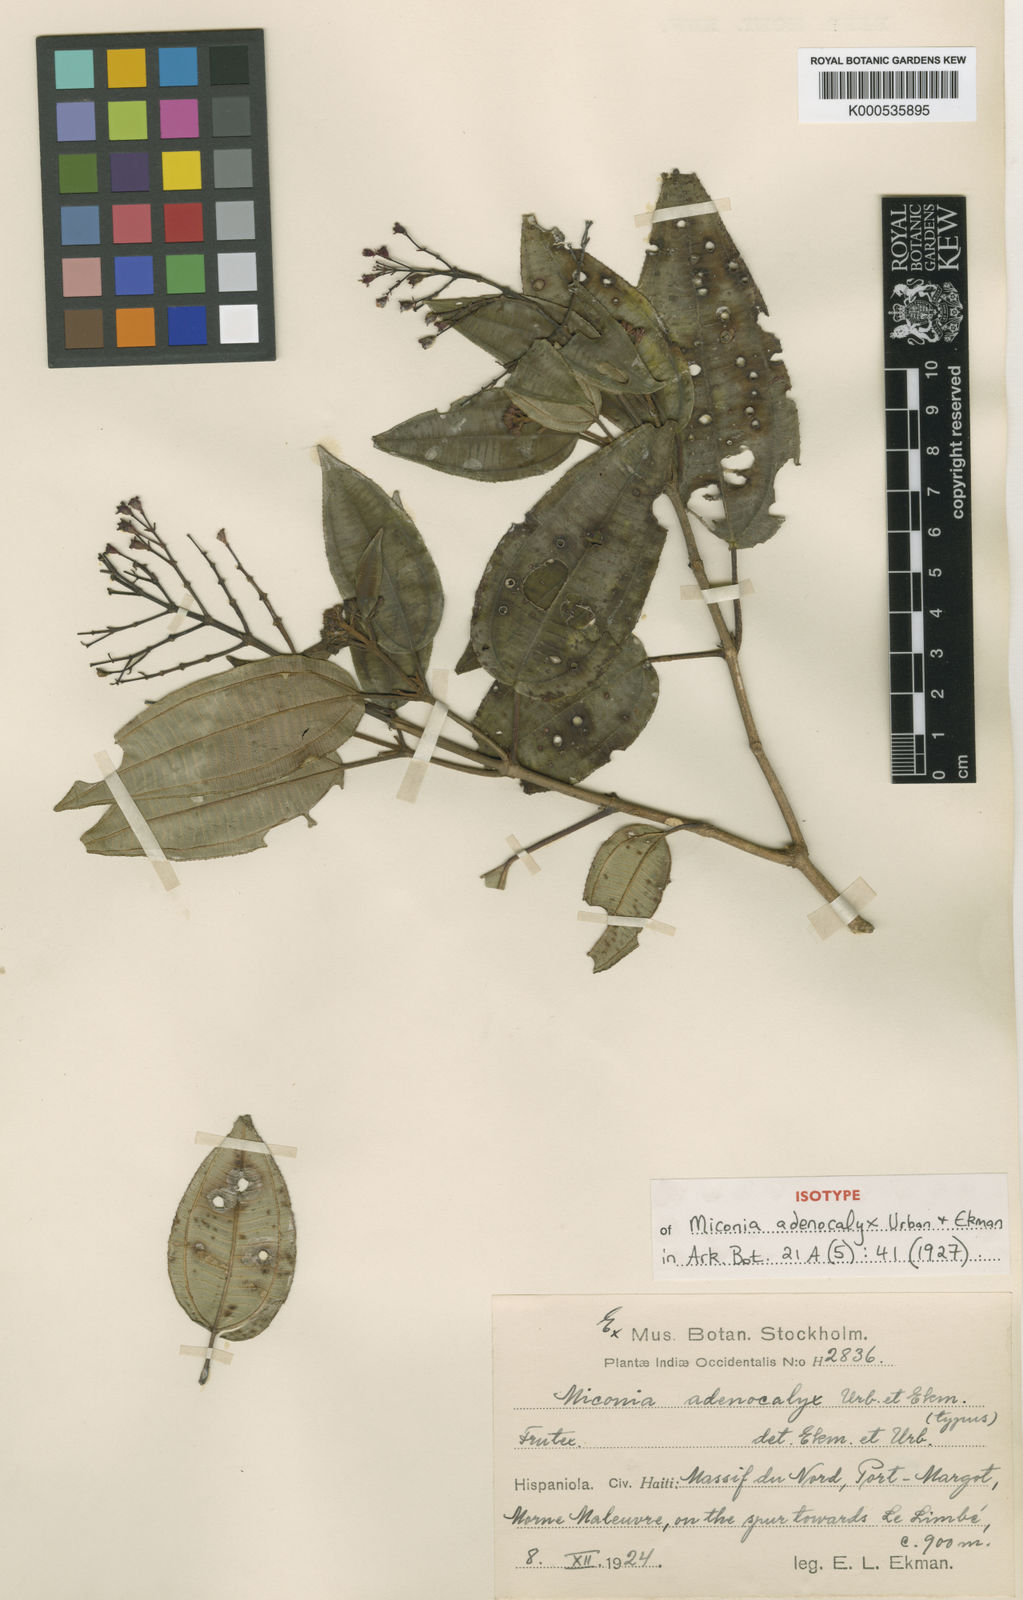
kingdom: Plantae
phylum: Tracheophyta
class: Magnoliopsida
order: Myrtales
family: Melastomataceae
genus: Miconia
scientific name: Miconia adenocalyx
